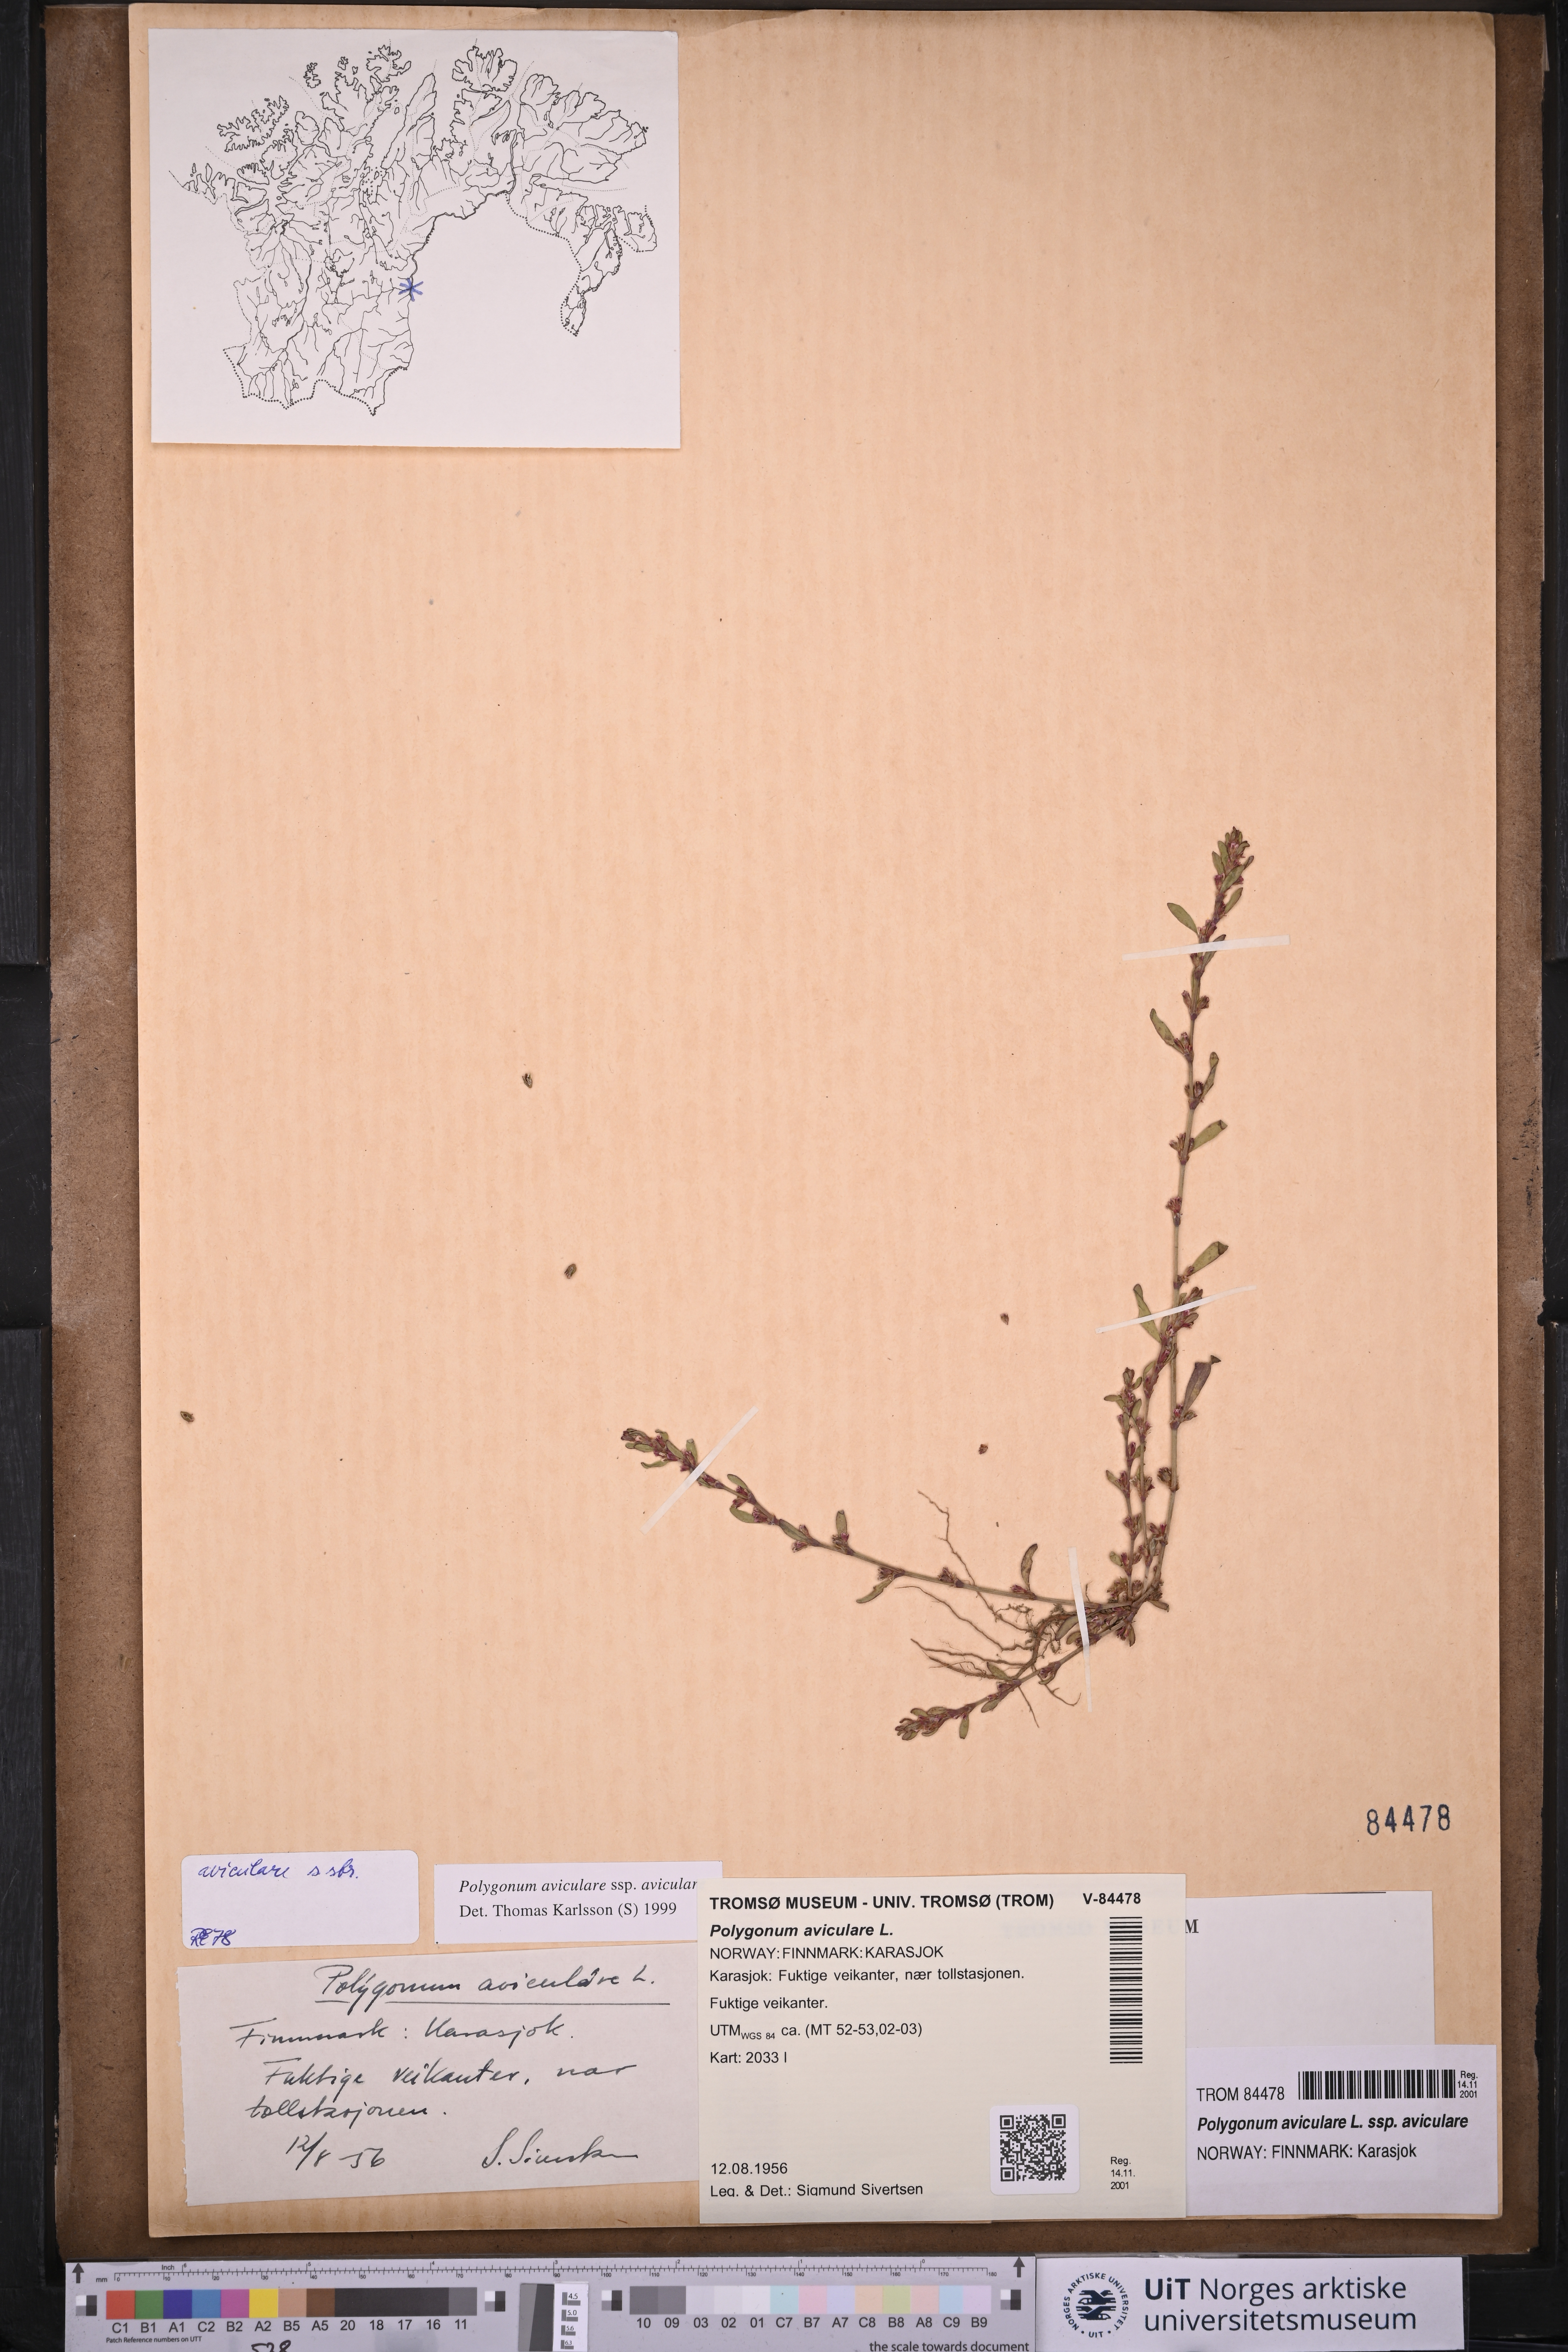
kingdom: Plantae
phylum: Tracheophyta
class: Magnoliopsida
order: Caryophyllales
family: Polygonaceae
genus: Polygonum
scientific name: Polygonum aviculare
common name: Prostrate knotweed
